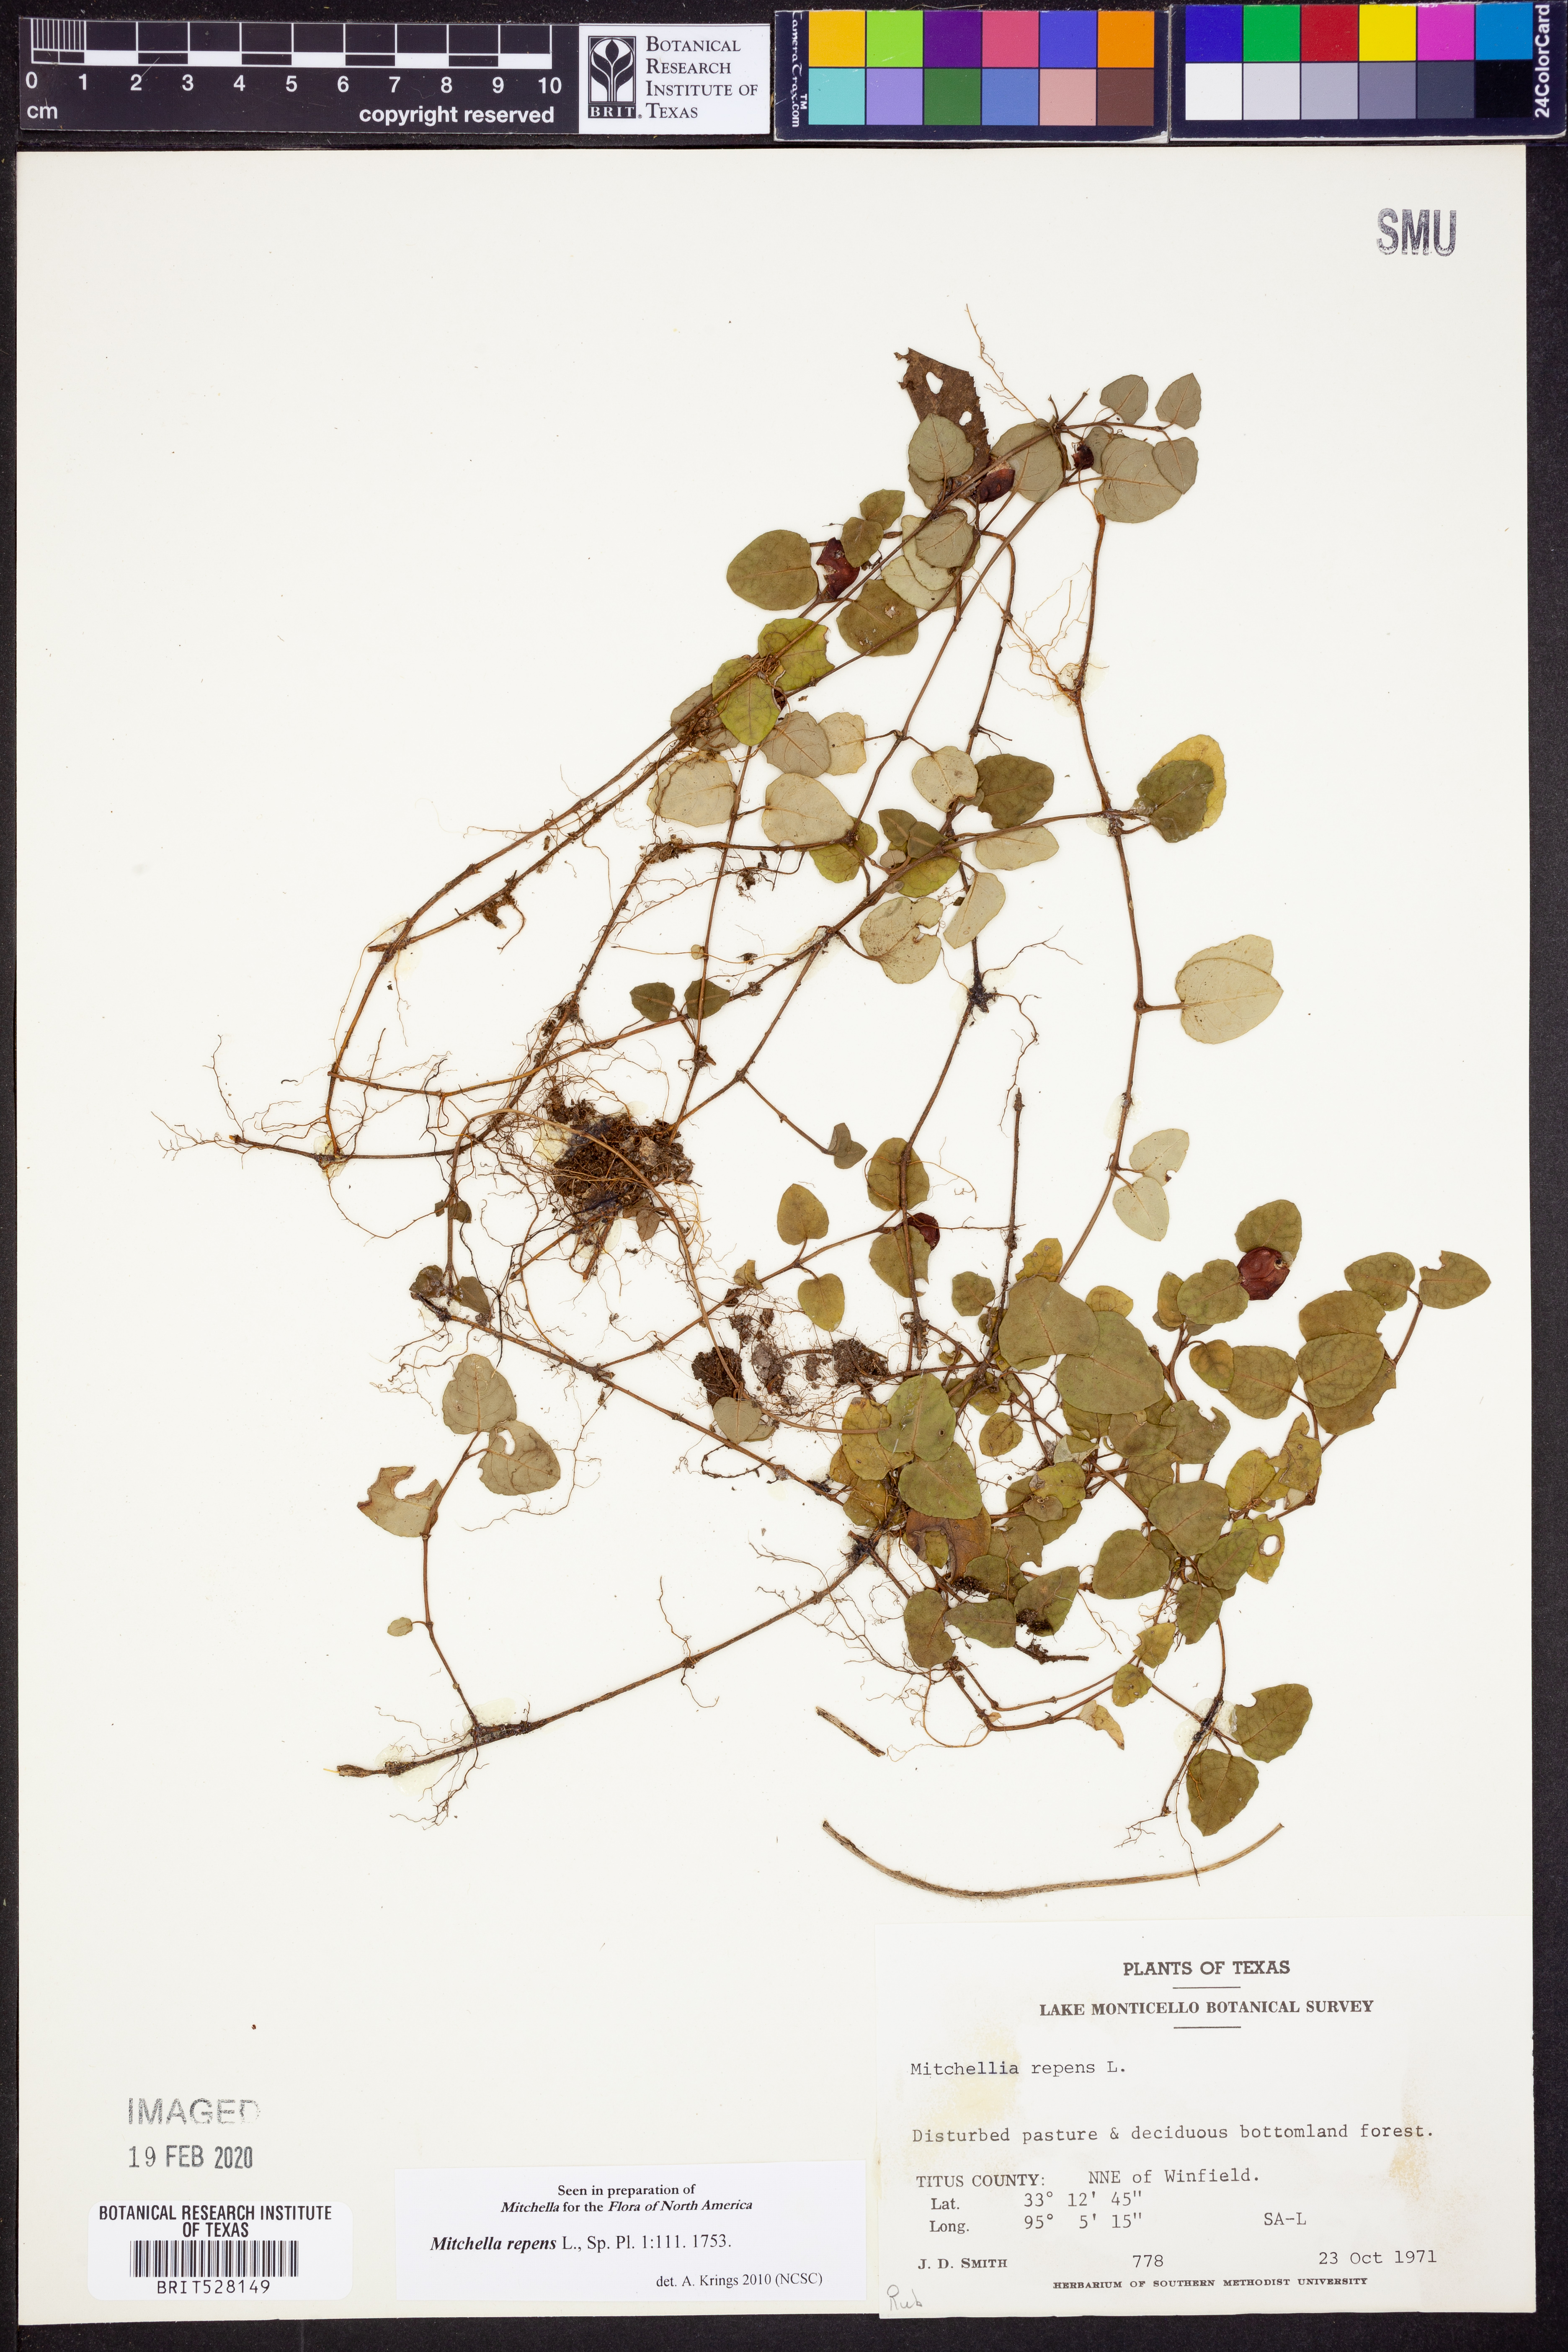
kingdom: Plantae
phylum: Tracheophyta
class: Magnoliopsida
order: Gentianales
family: Rubiaceae
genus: Mitchella
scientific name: Mitchella repens
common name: Partridge-berry
